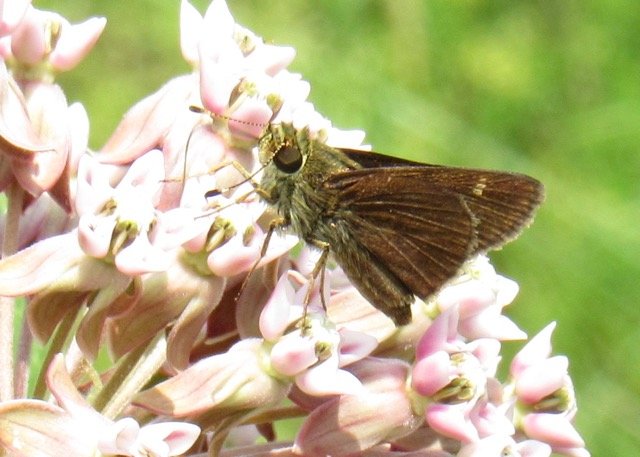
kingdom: Animalia
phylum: Arthropoda
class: Insecta
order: Lepidoptera
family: Hesperiidae
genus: Vernia
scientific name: Vernia verna
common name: Little Glassywing
